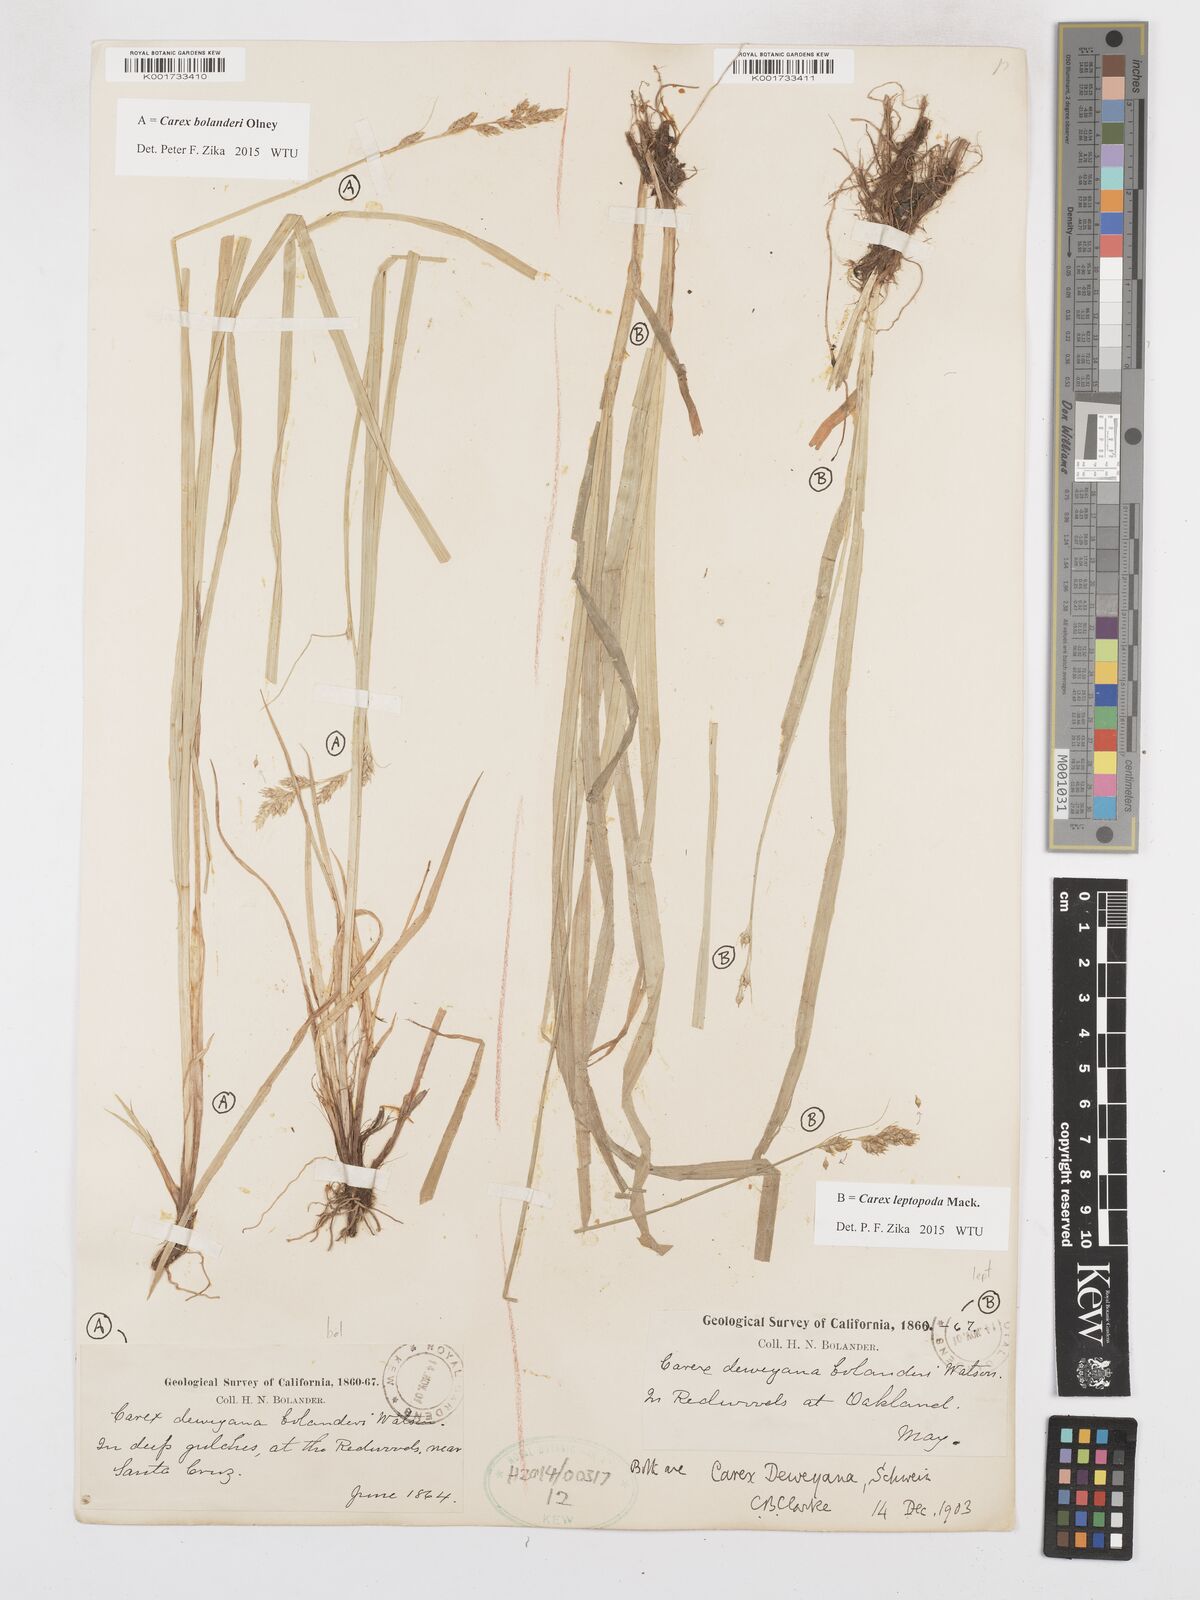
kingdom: Plantae
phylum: Tracheophyta
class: Liliopsida
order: Poales
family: Cyperaceae
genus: Carex
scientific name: Carex leptopoda
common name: Short-scale sedge
